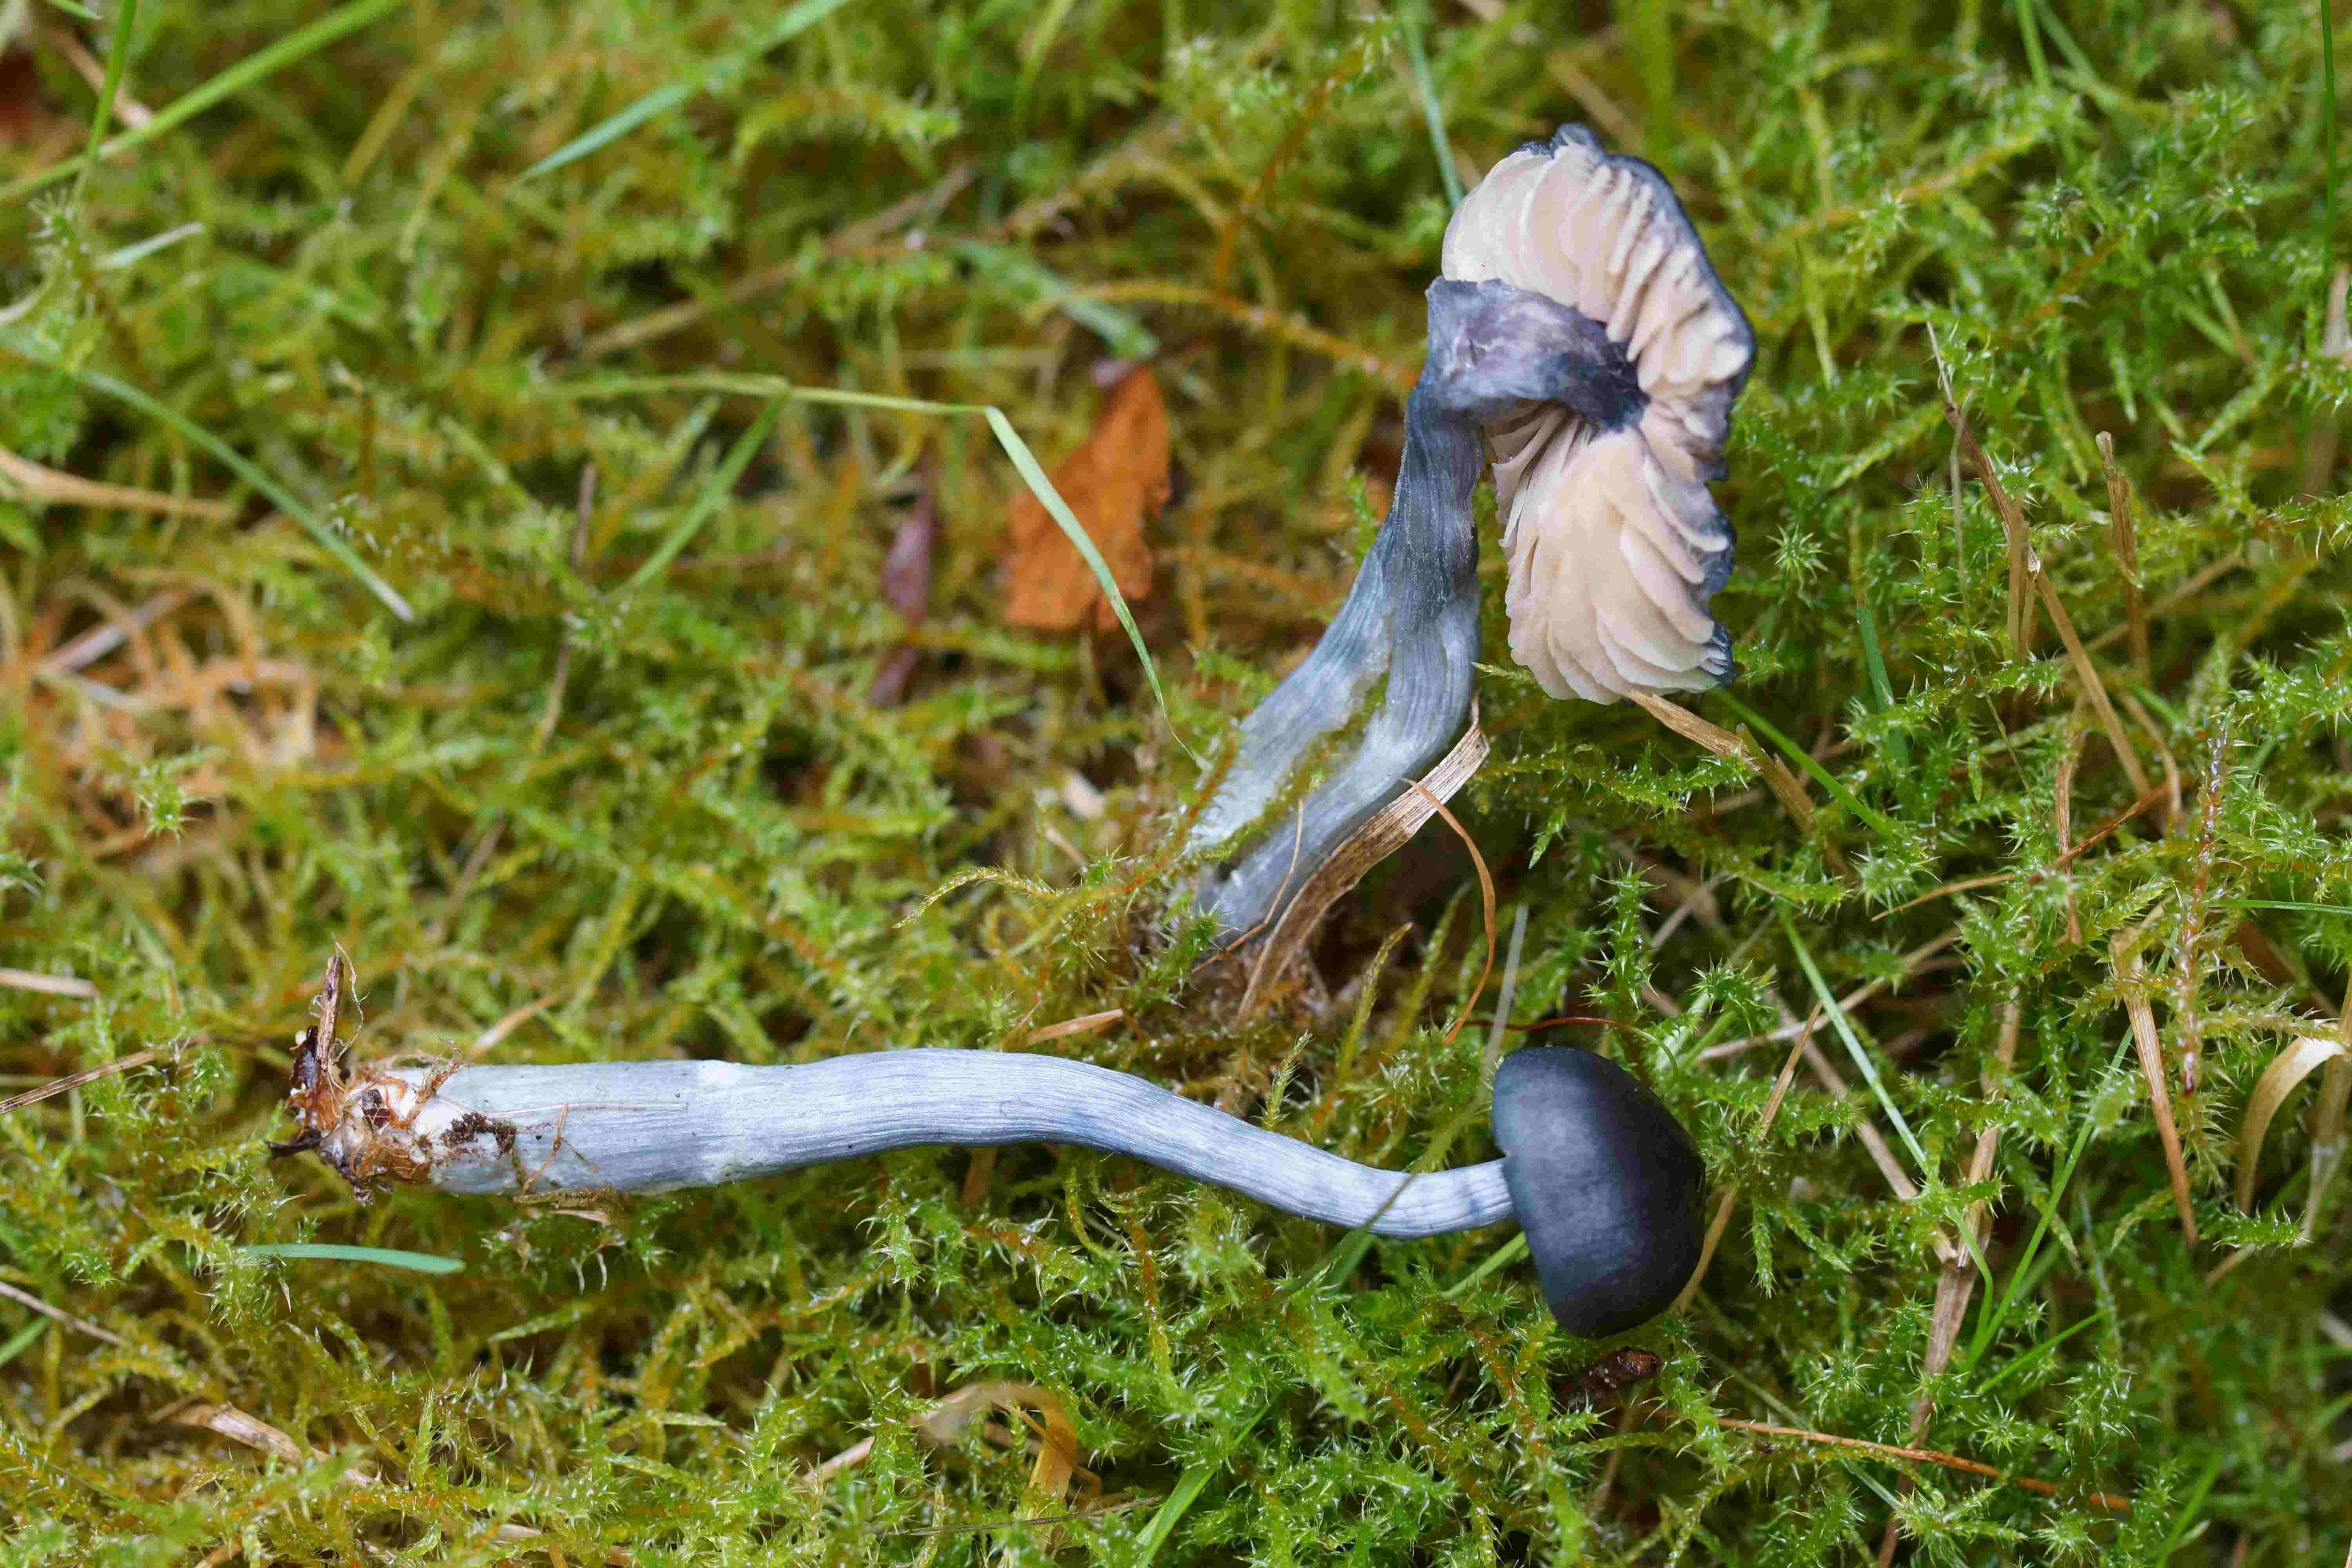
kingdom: Fungi
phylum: Basidiomycota
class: Agaricomycetes
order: Agaricales
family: Entolomataceae
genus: Entocybe
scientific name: Entocybe nitida
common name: stålblå rødblad
